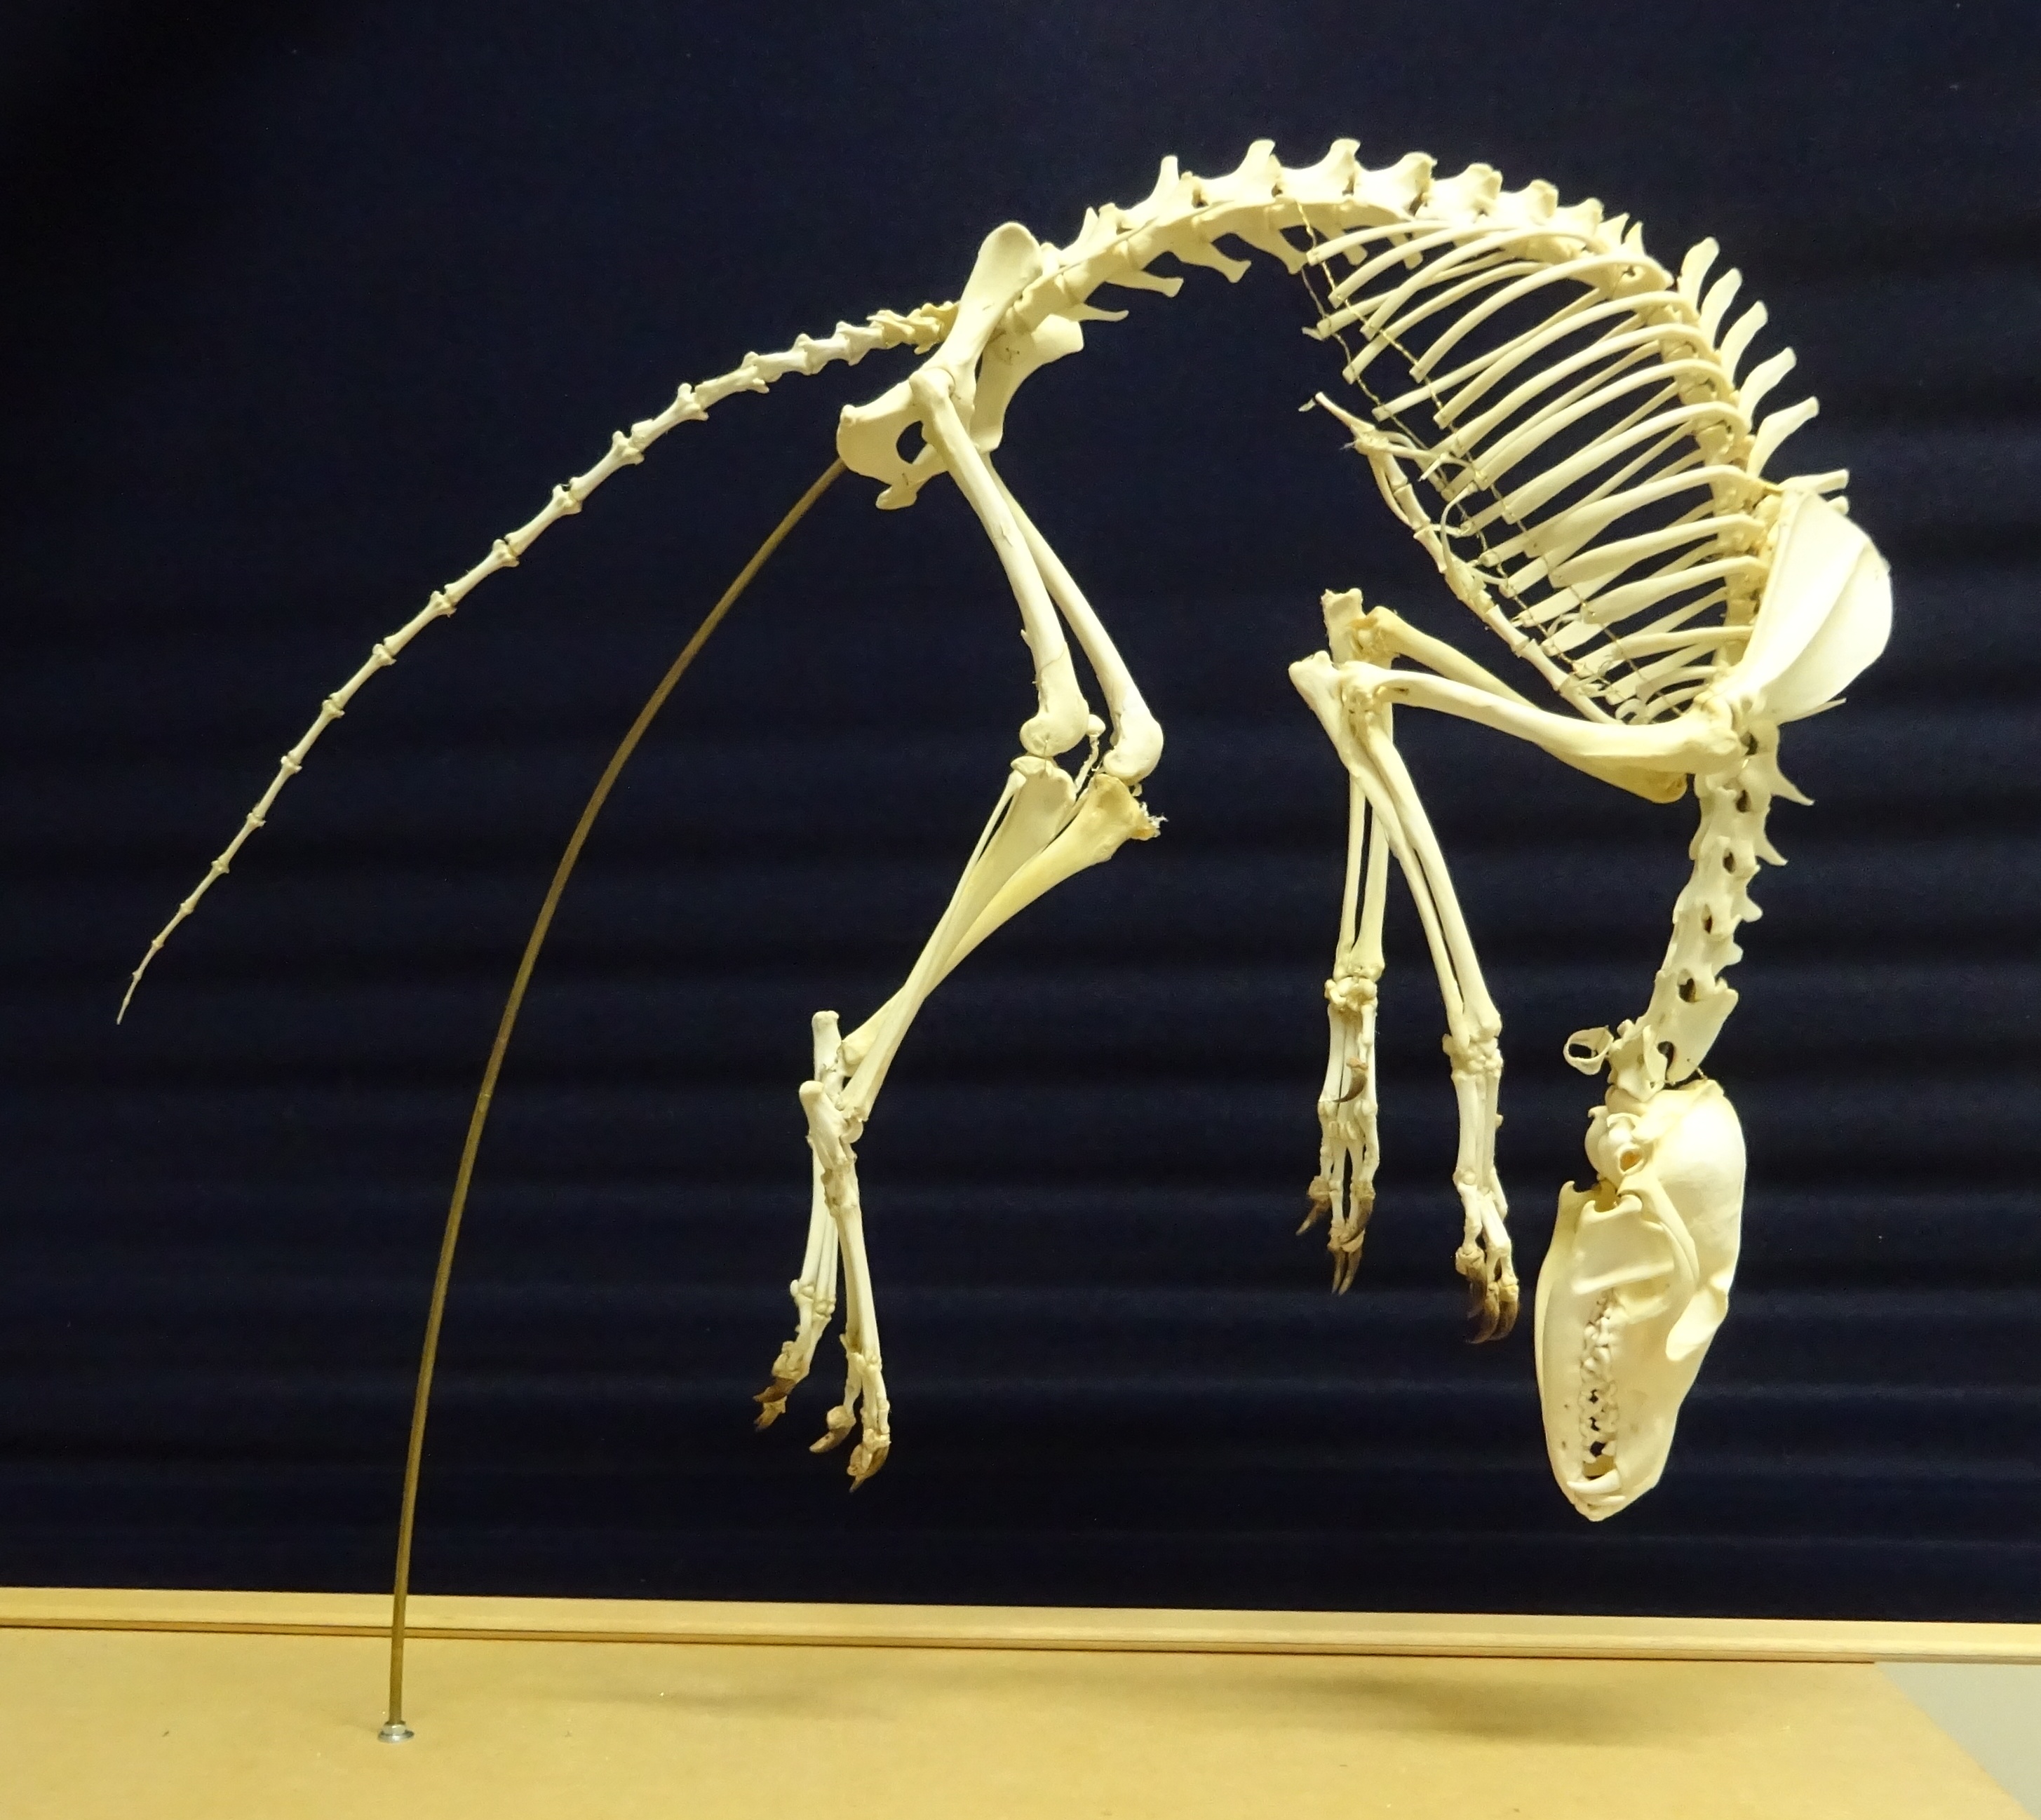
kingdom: Animalia
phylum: Chordata
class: Mammalia
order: Carnivora
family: Canidae
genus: Vulpes
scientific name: Vulpes vulpes
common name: Red fox
